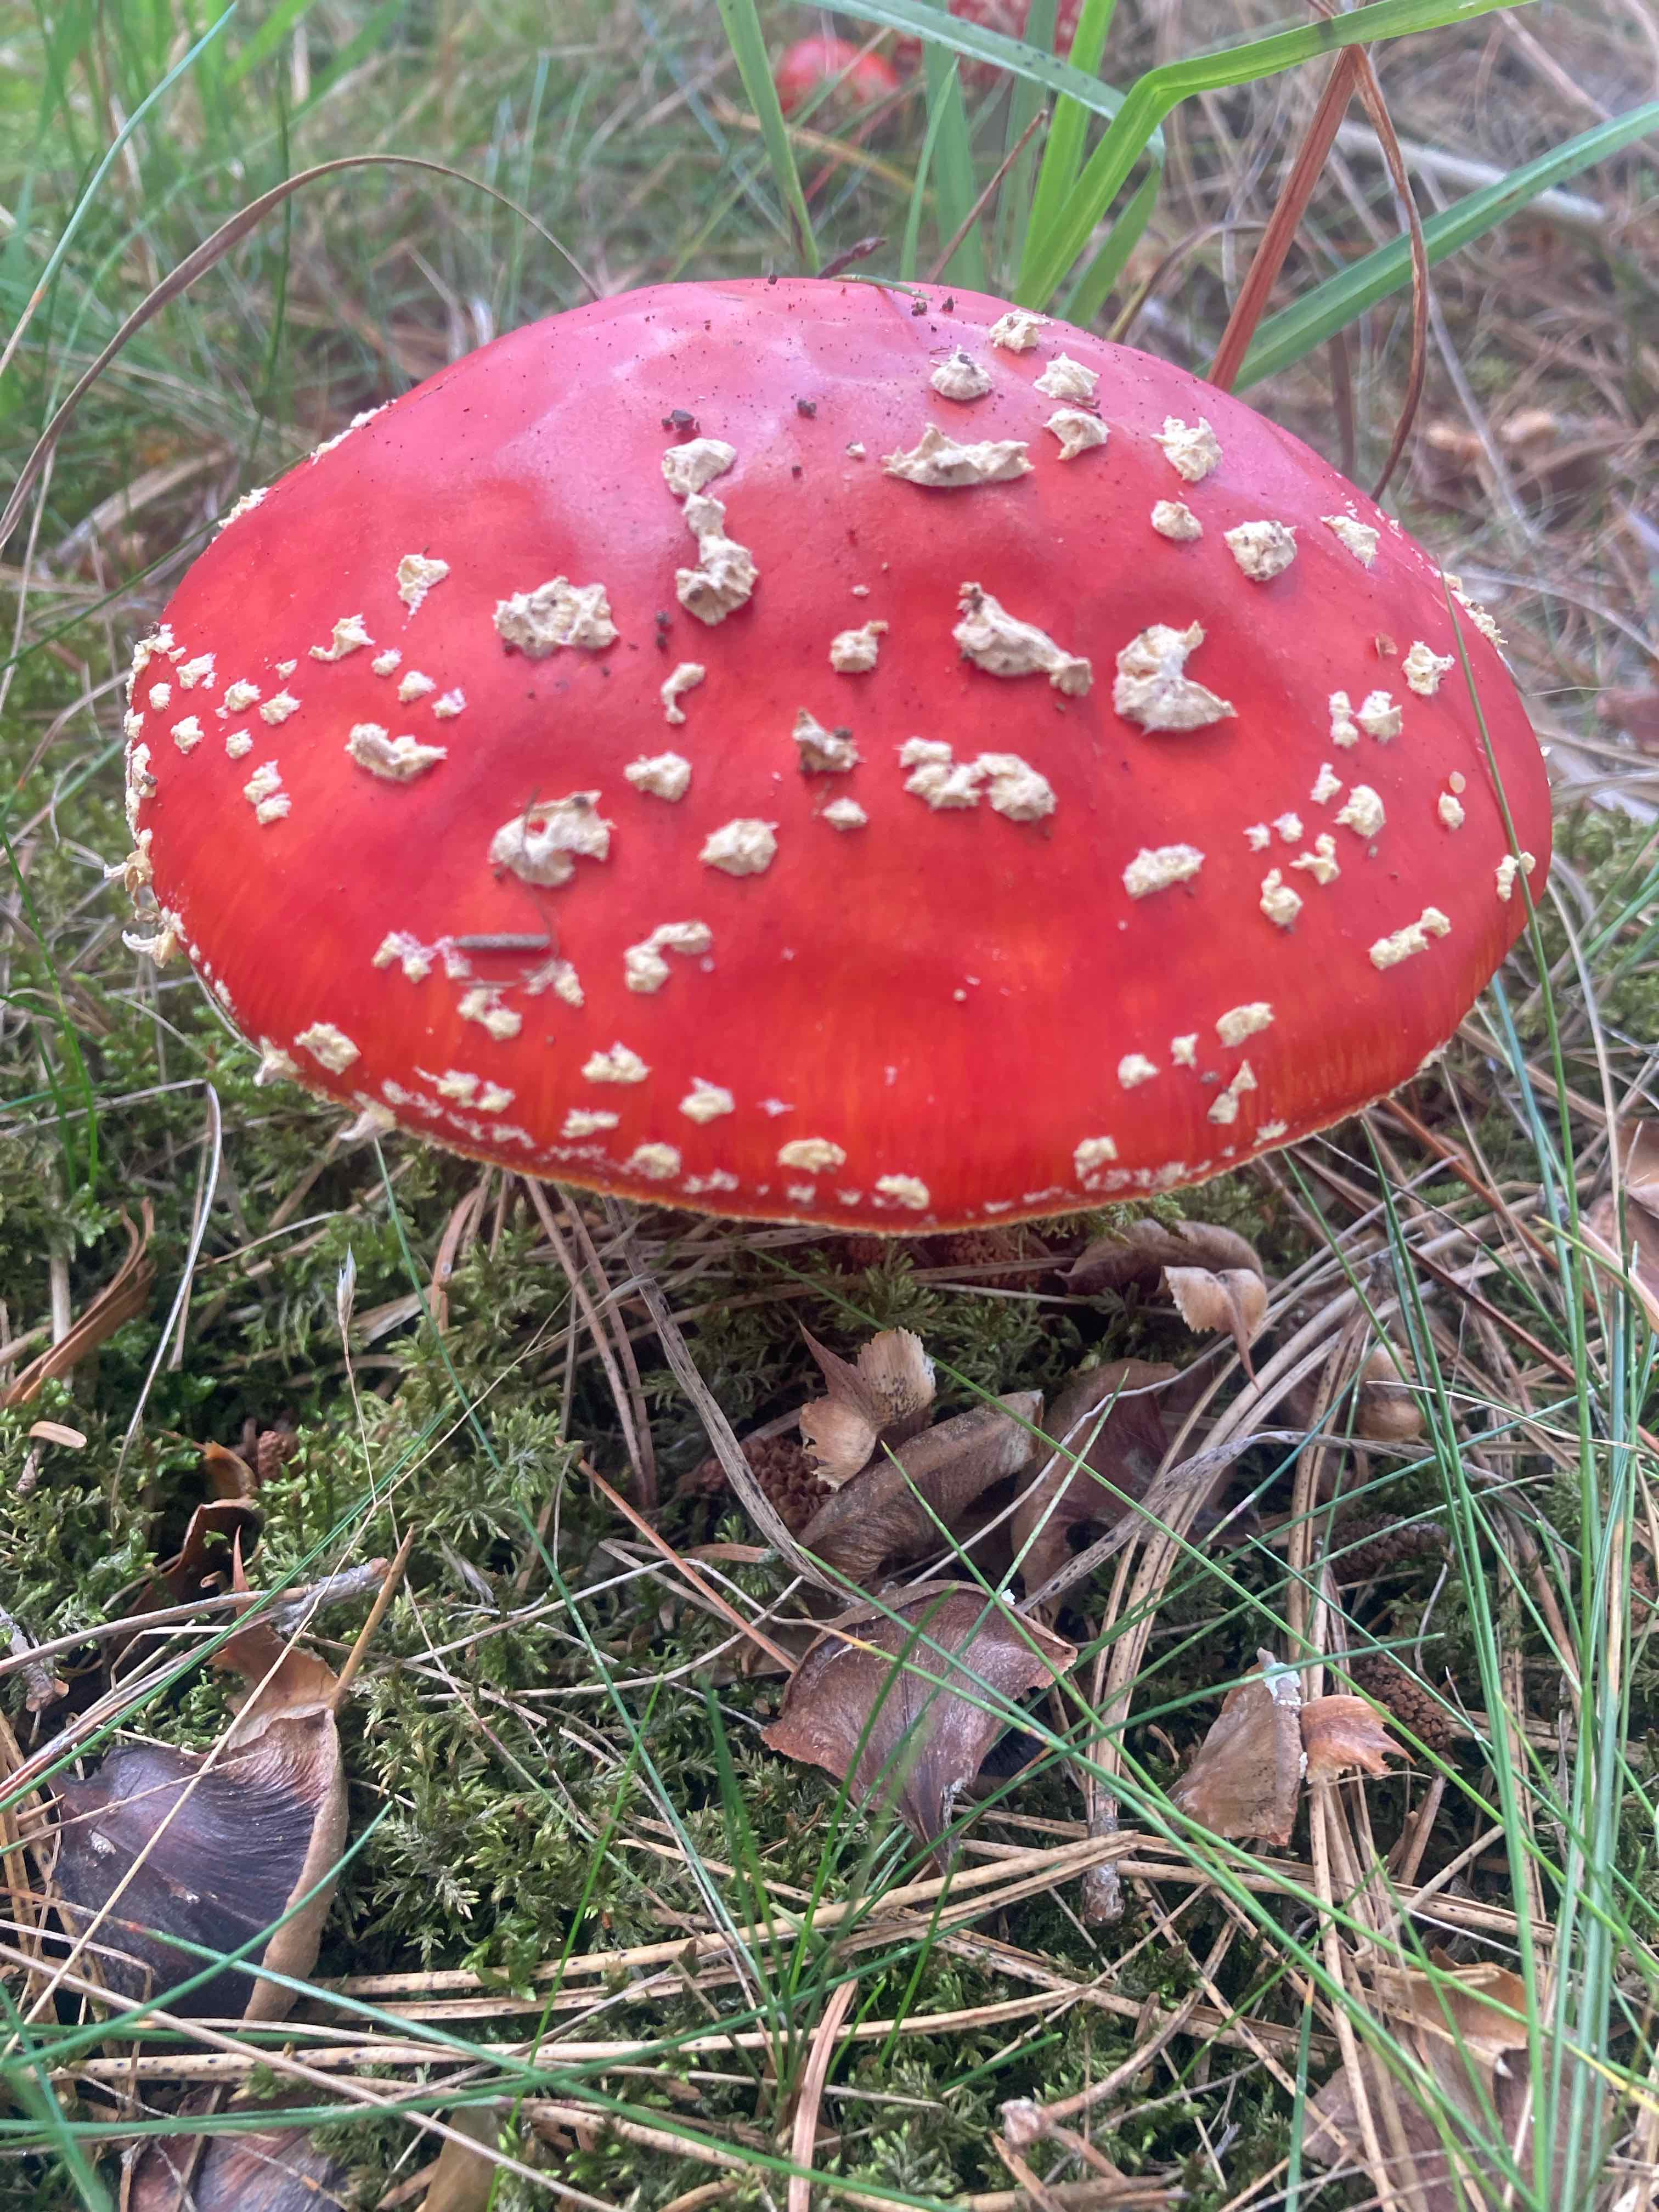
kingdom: Fungi
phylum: Basidiomycota
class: Agaricomycetes
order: Agaricales
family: Amanitaceae
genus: Amanita
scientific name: Amanita muscaria
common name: rød fluesvamp
